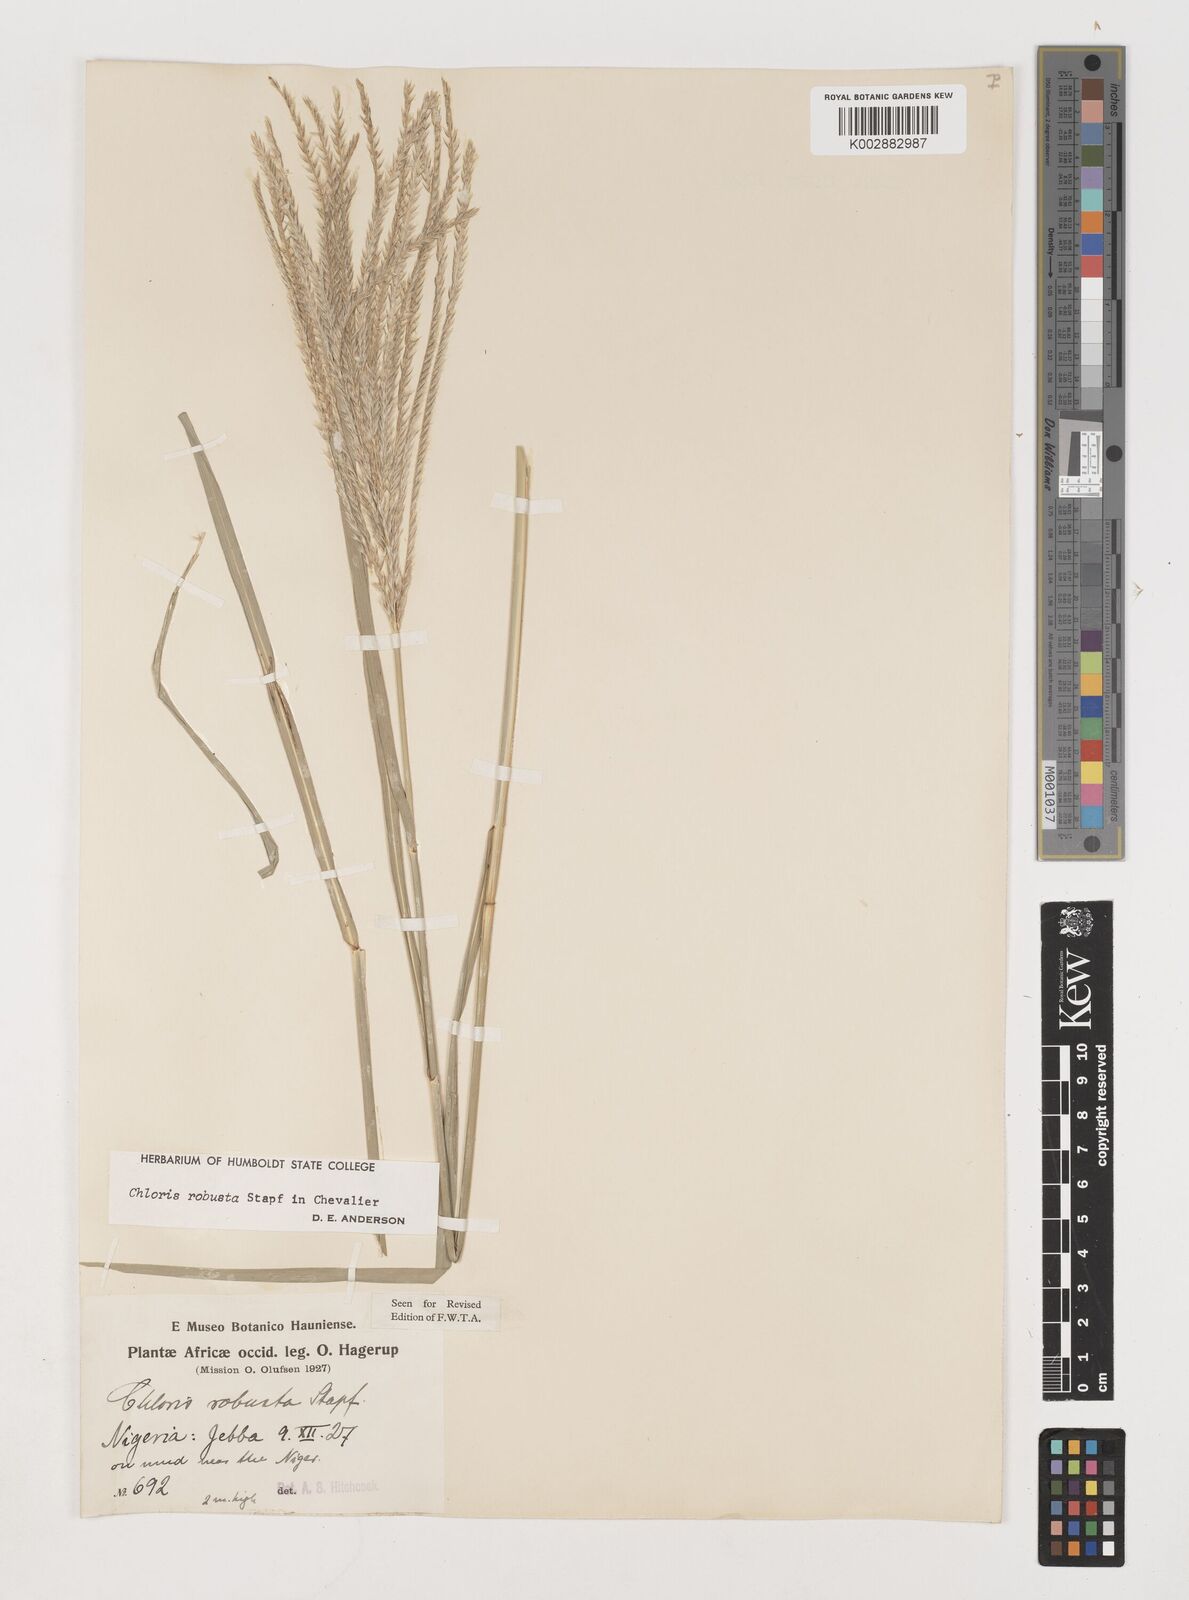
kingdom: Plantae
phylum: Tracheophyta
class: Liliopsida
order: Poales
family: Poaceae
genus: Chloris
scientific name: Chloris robusta
